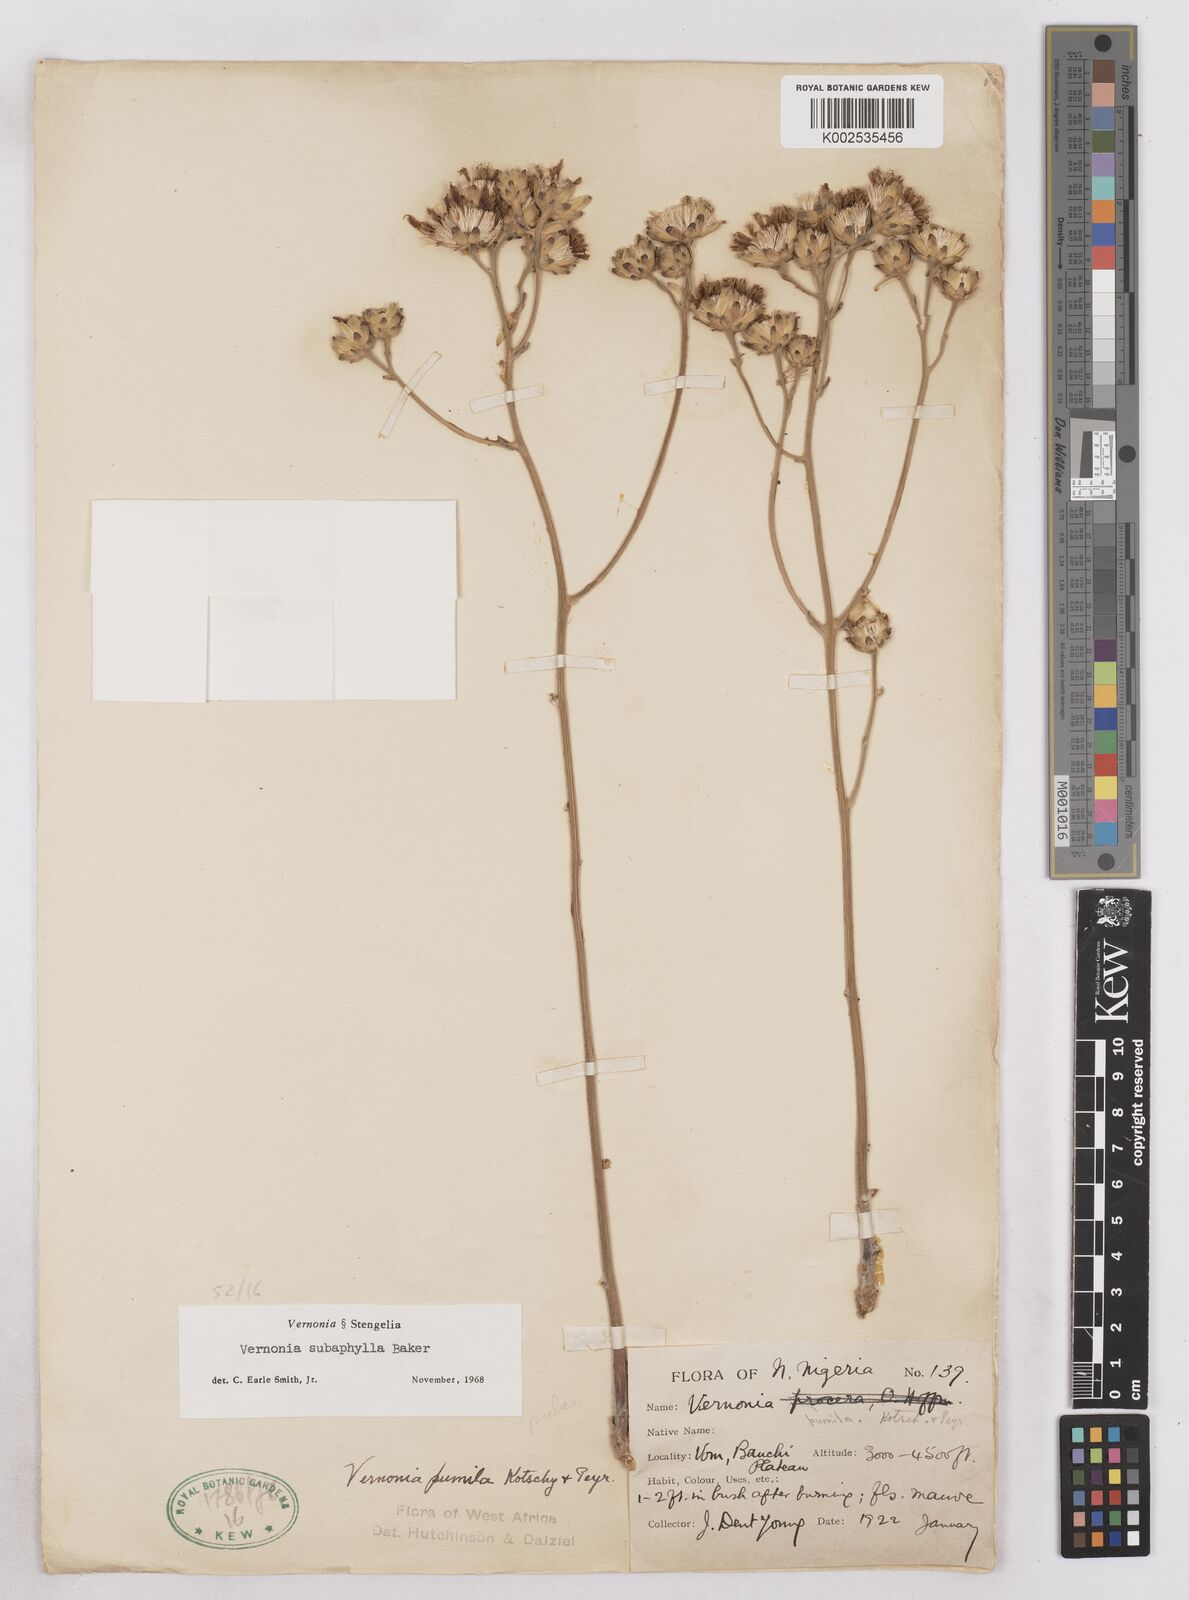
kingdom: Plantae
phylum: Tracheophyta
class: Magnoliopsida
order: Asterales
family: Asteraceae
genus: Vernonella
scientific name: Vernonella subaphylla
